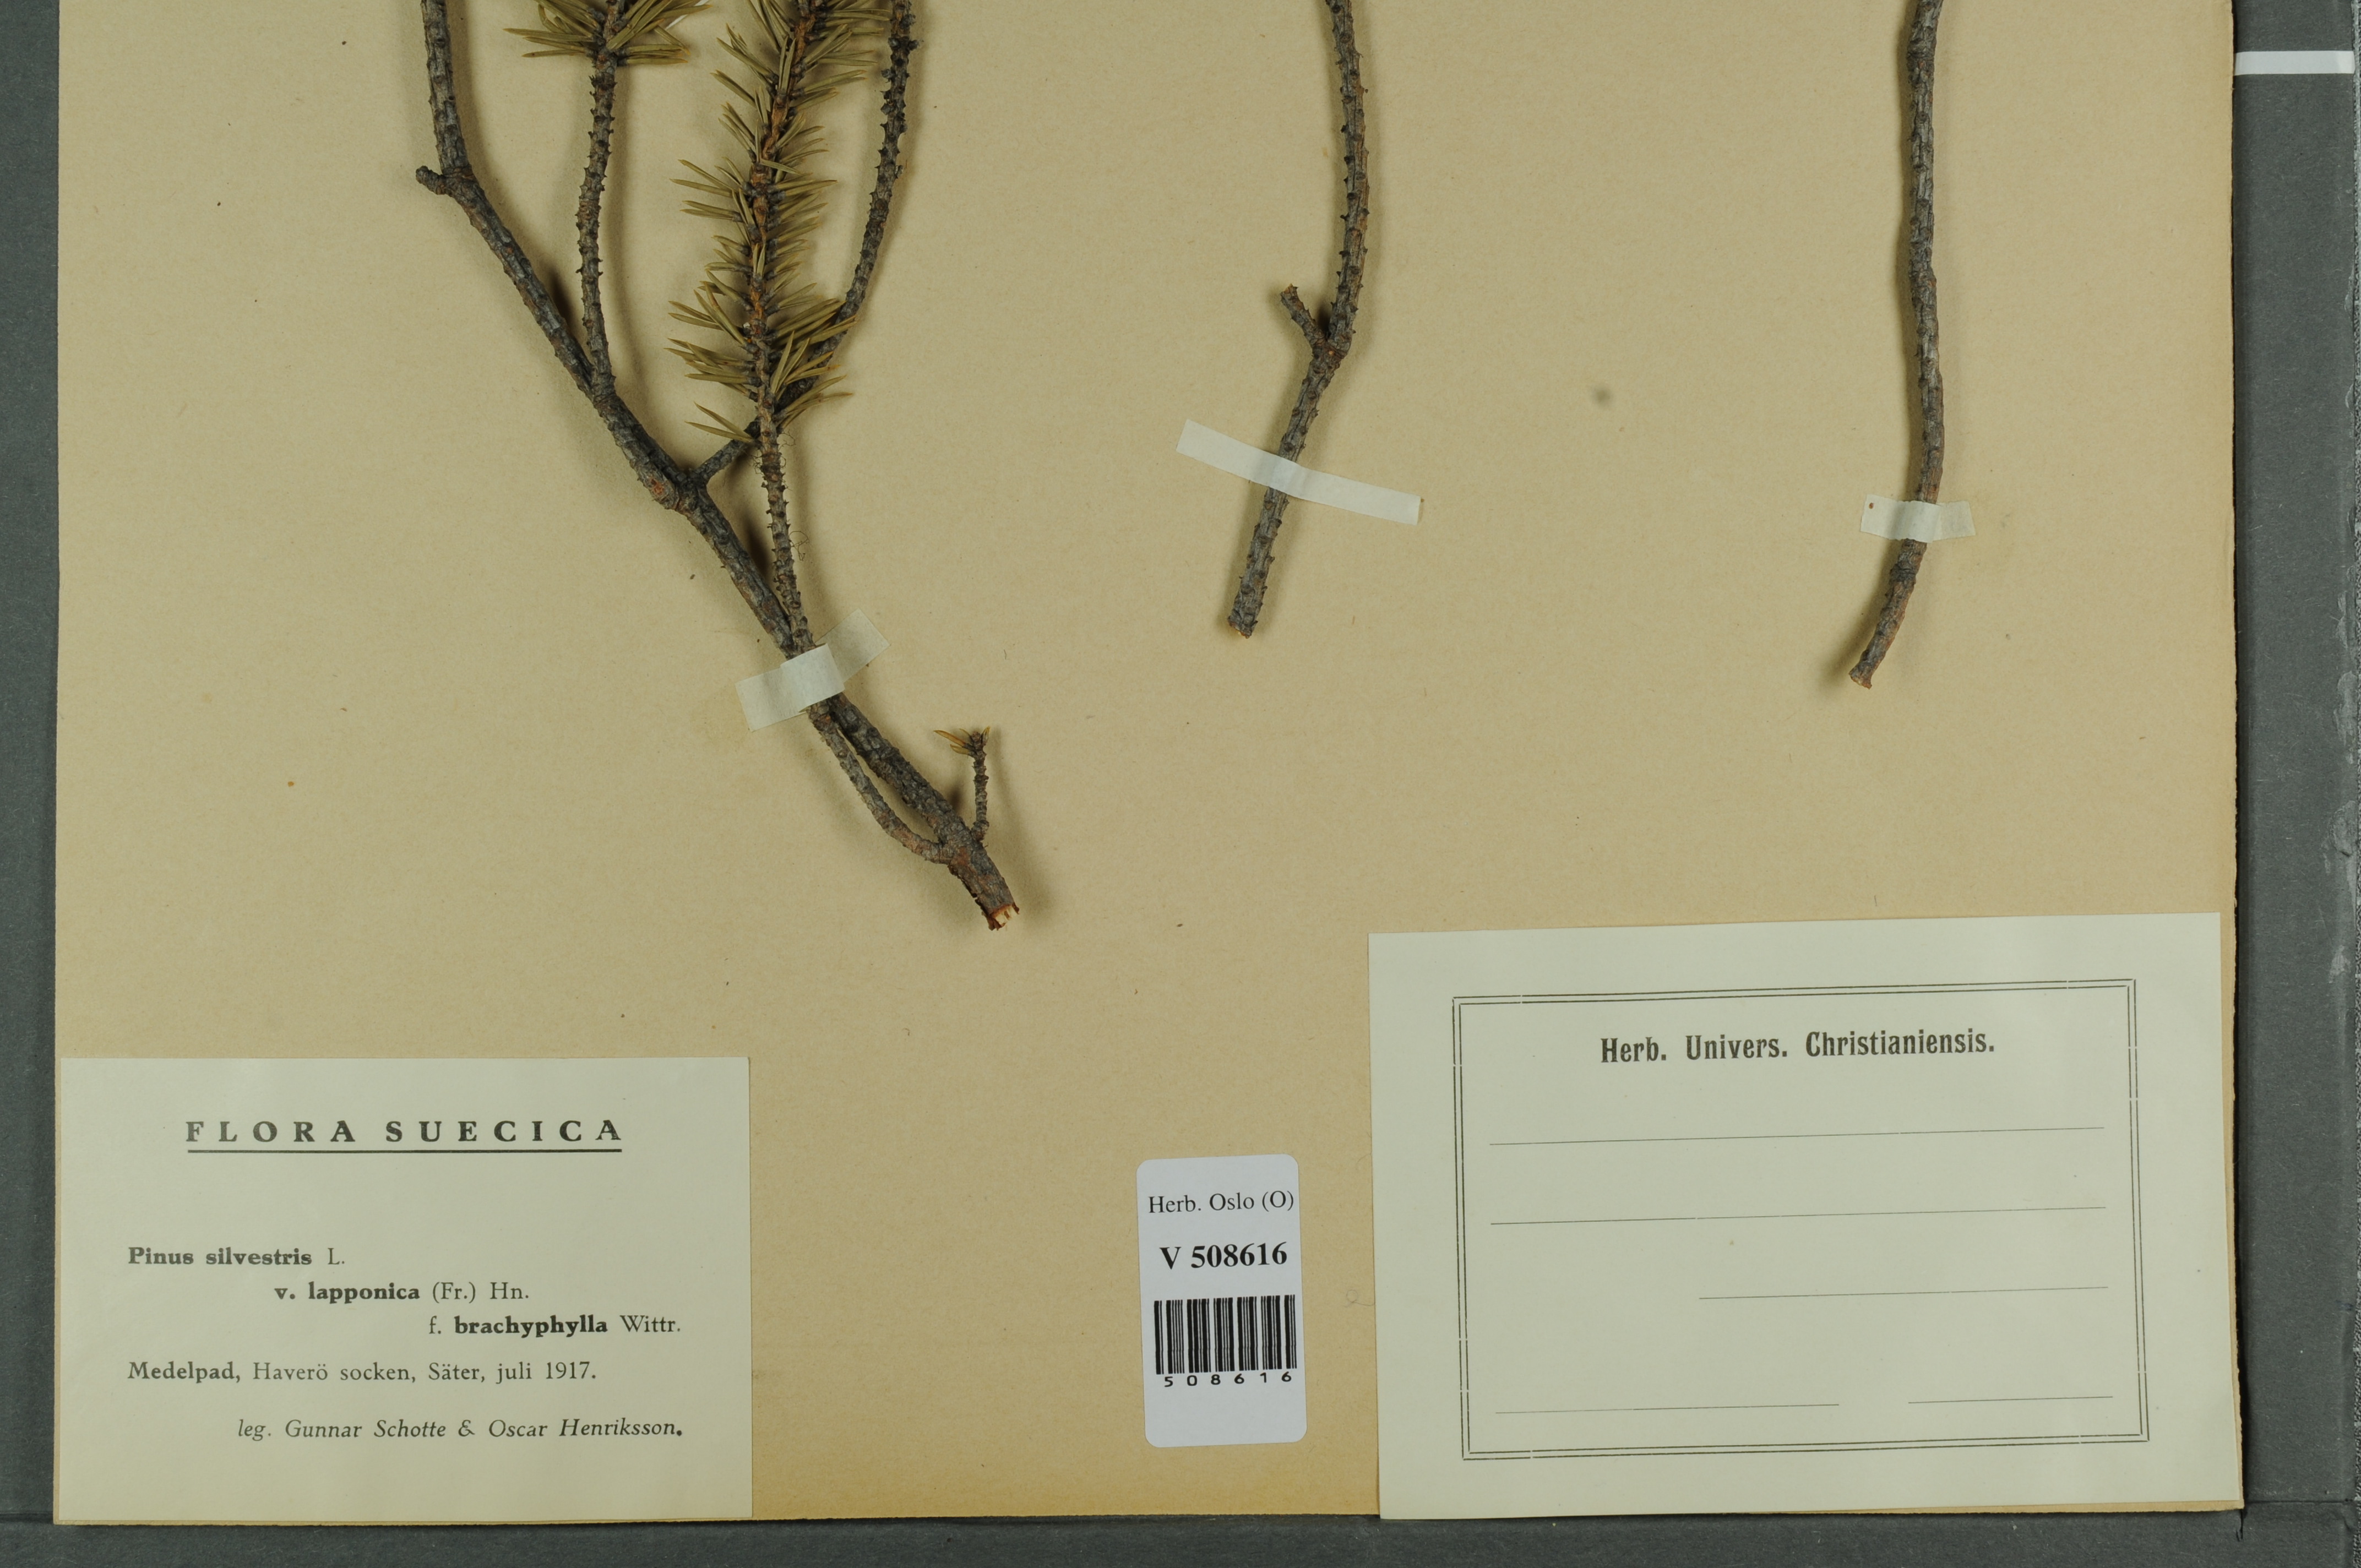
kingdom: Plantae
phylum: Tracheophyta
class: Pinopsida
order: Pinales
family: Pinaceae
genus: Pinus
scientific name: Pinus sylvestris
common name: Scots pine
